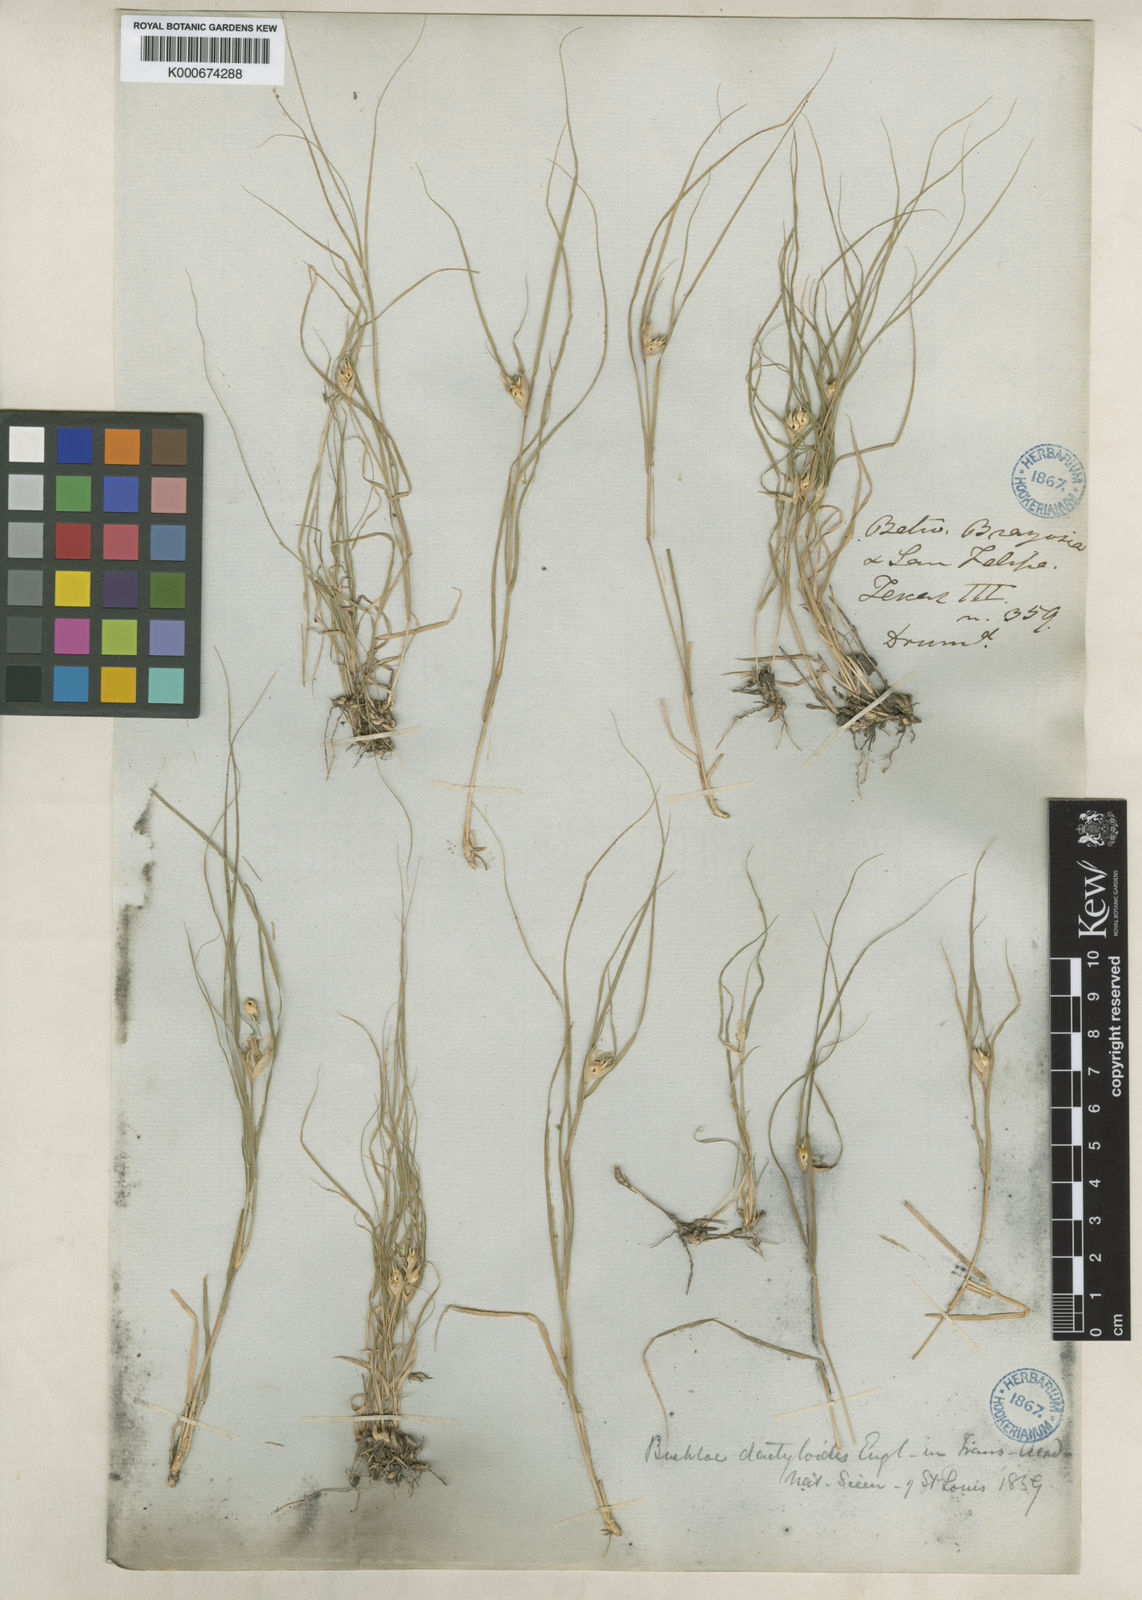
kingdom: Plantae
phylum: Tracheophyta
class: Liliopsida
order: Poales
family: Poaceae
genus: Bouteloua
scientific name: Bouteloua dactyloides
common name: Buffalo grass
